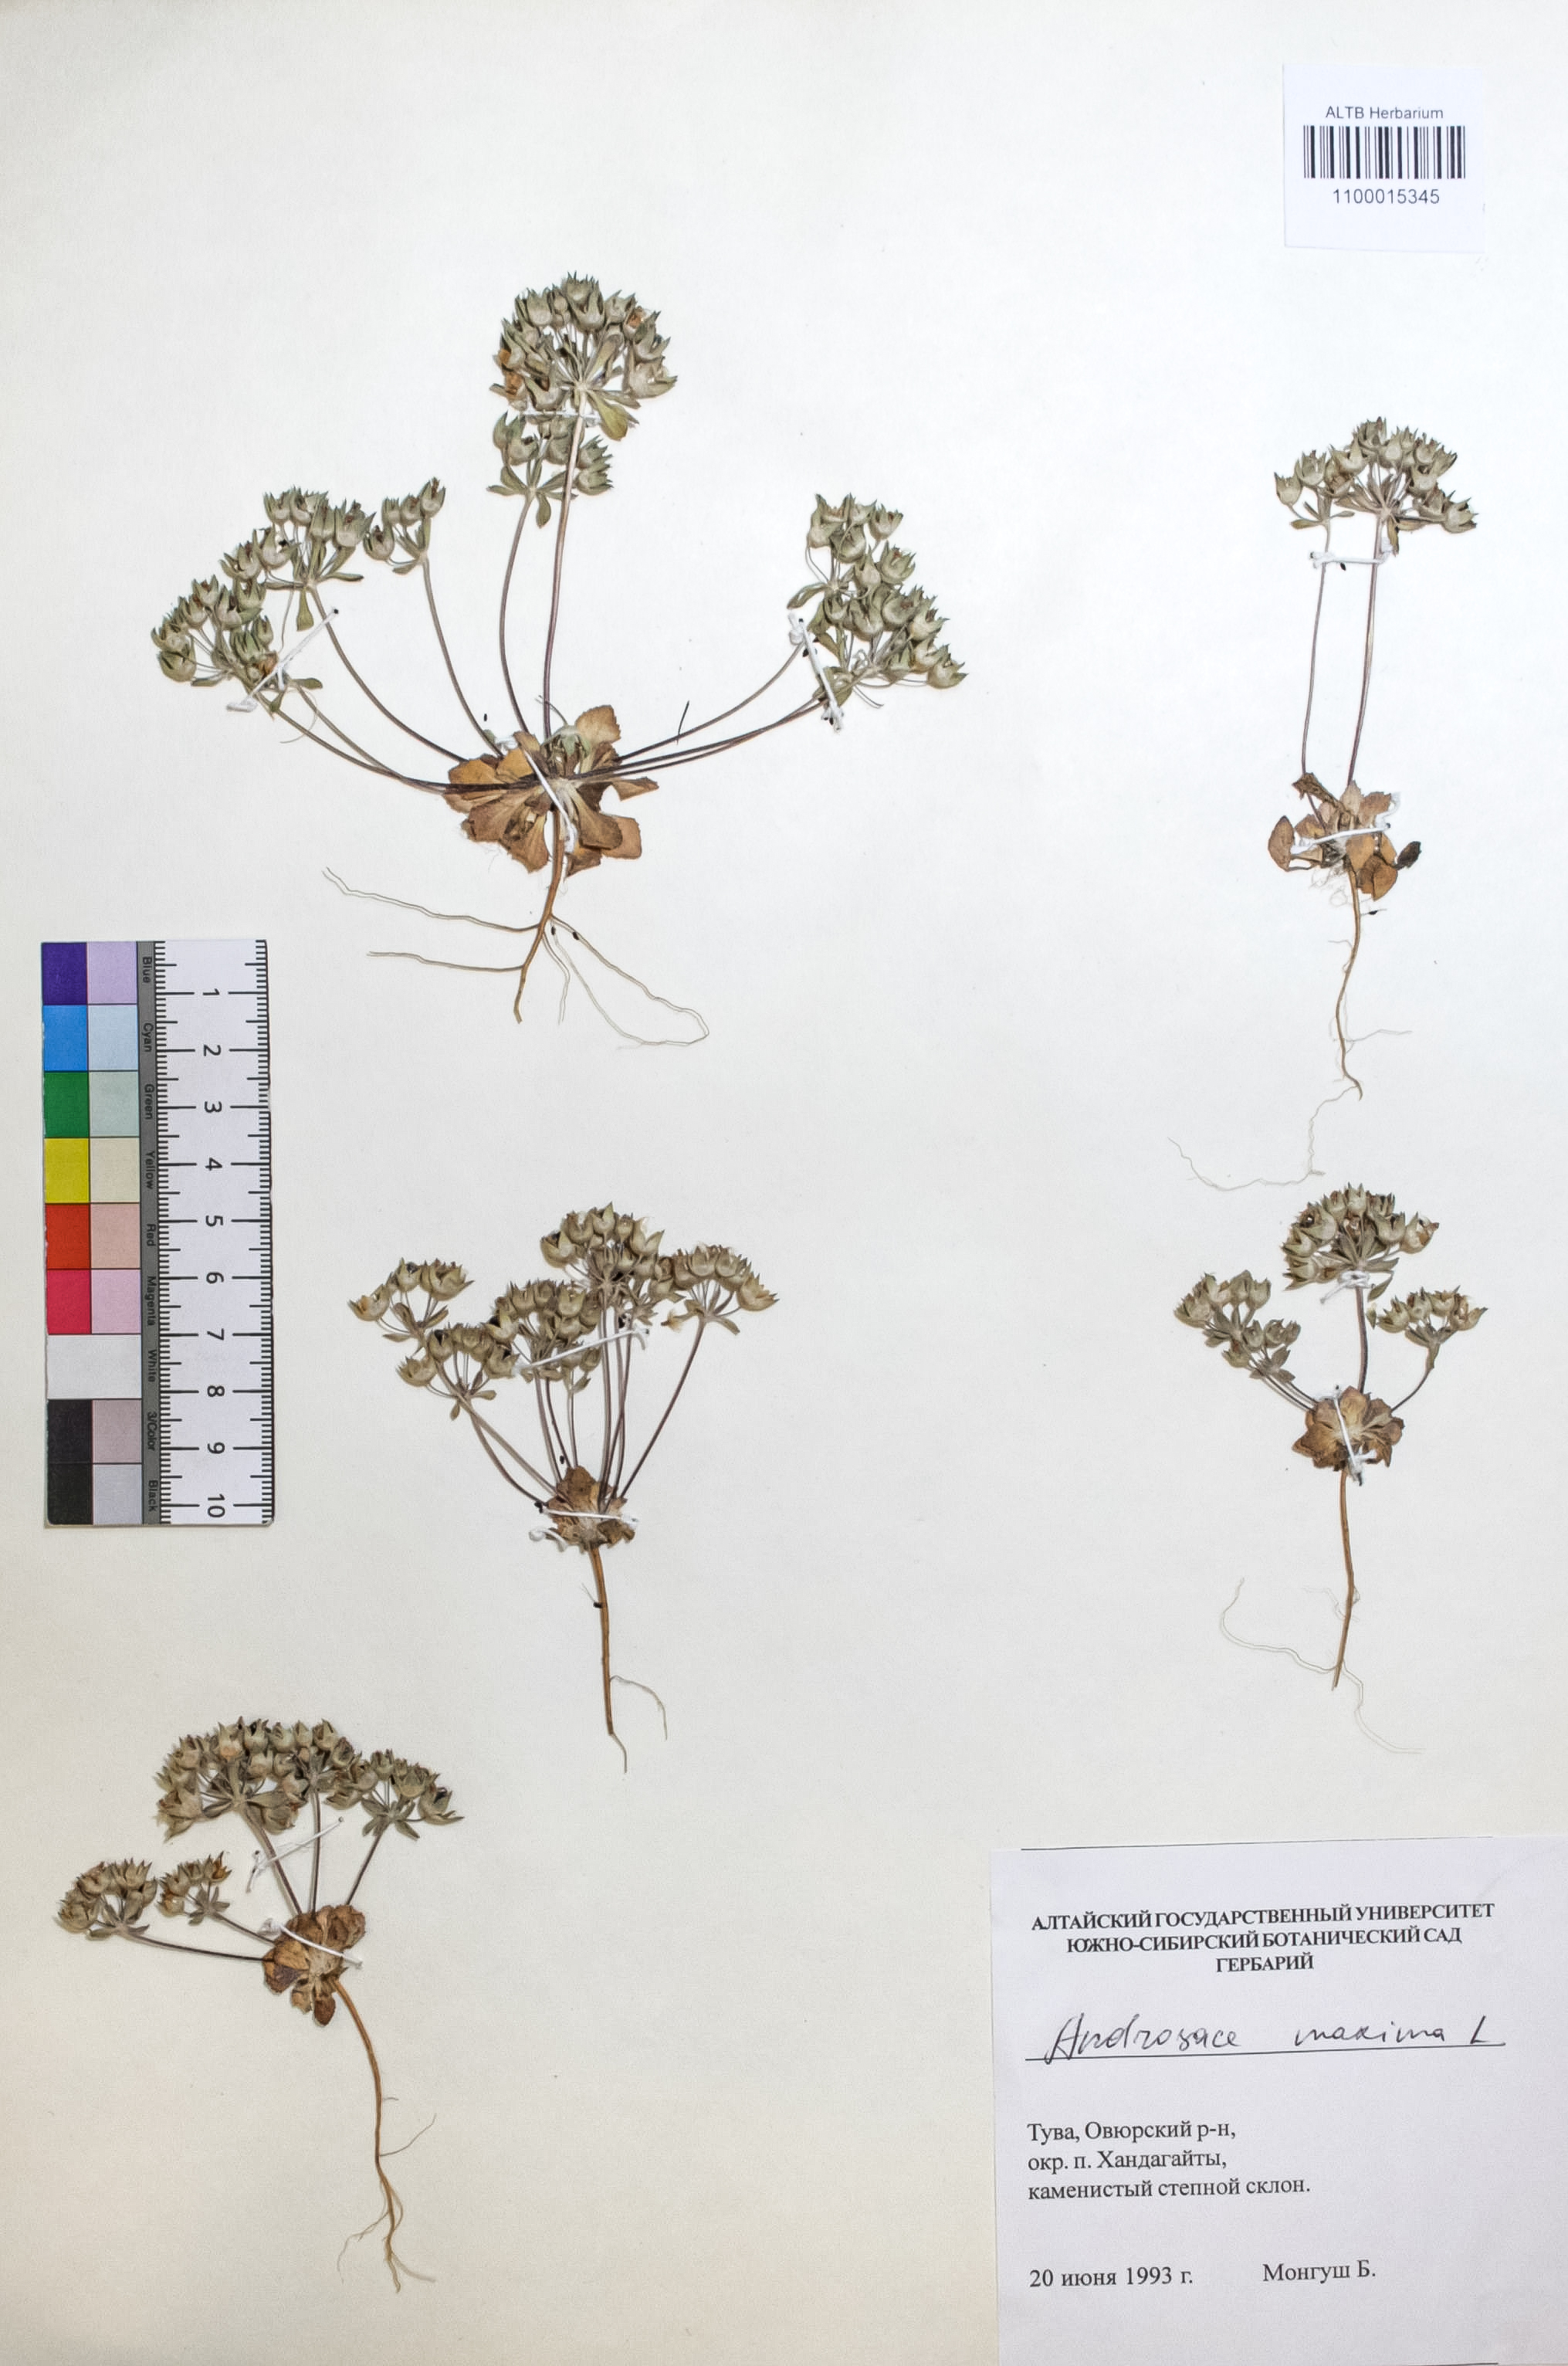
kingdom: Plantae
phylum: Tracheophyta
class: Magnoliopsida
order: Ericales
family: Primulaceae
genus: Androsace
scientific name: Androsace maxima
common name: Annual androsace
